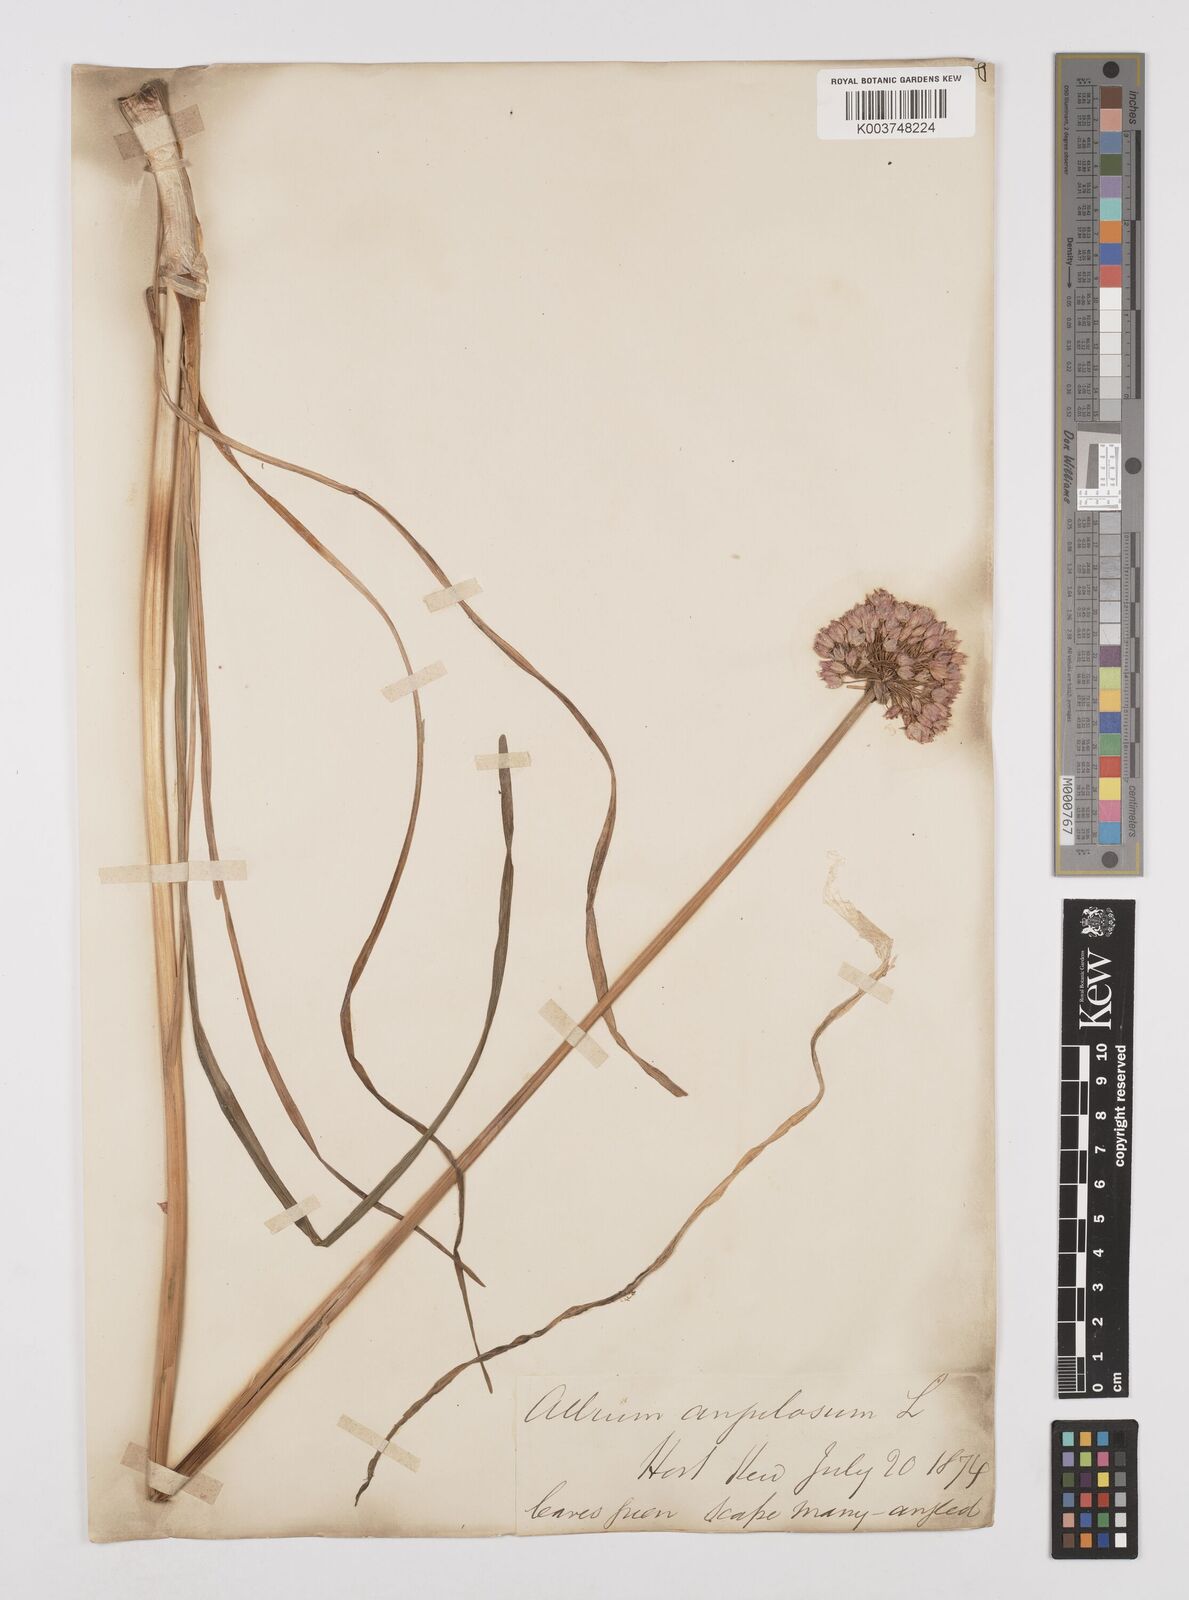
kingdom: Plantae
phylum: Tracheophyta
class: Liliopsida
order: Asparagales
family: Amaryllidaceae
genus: Allium
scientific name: Allium angulosum
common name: Mouse garlic
